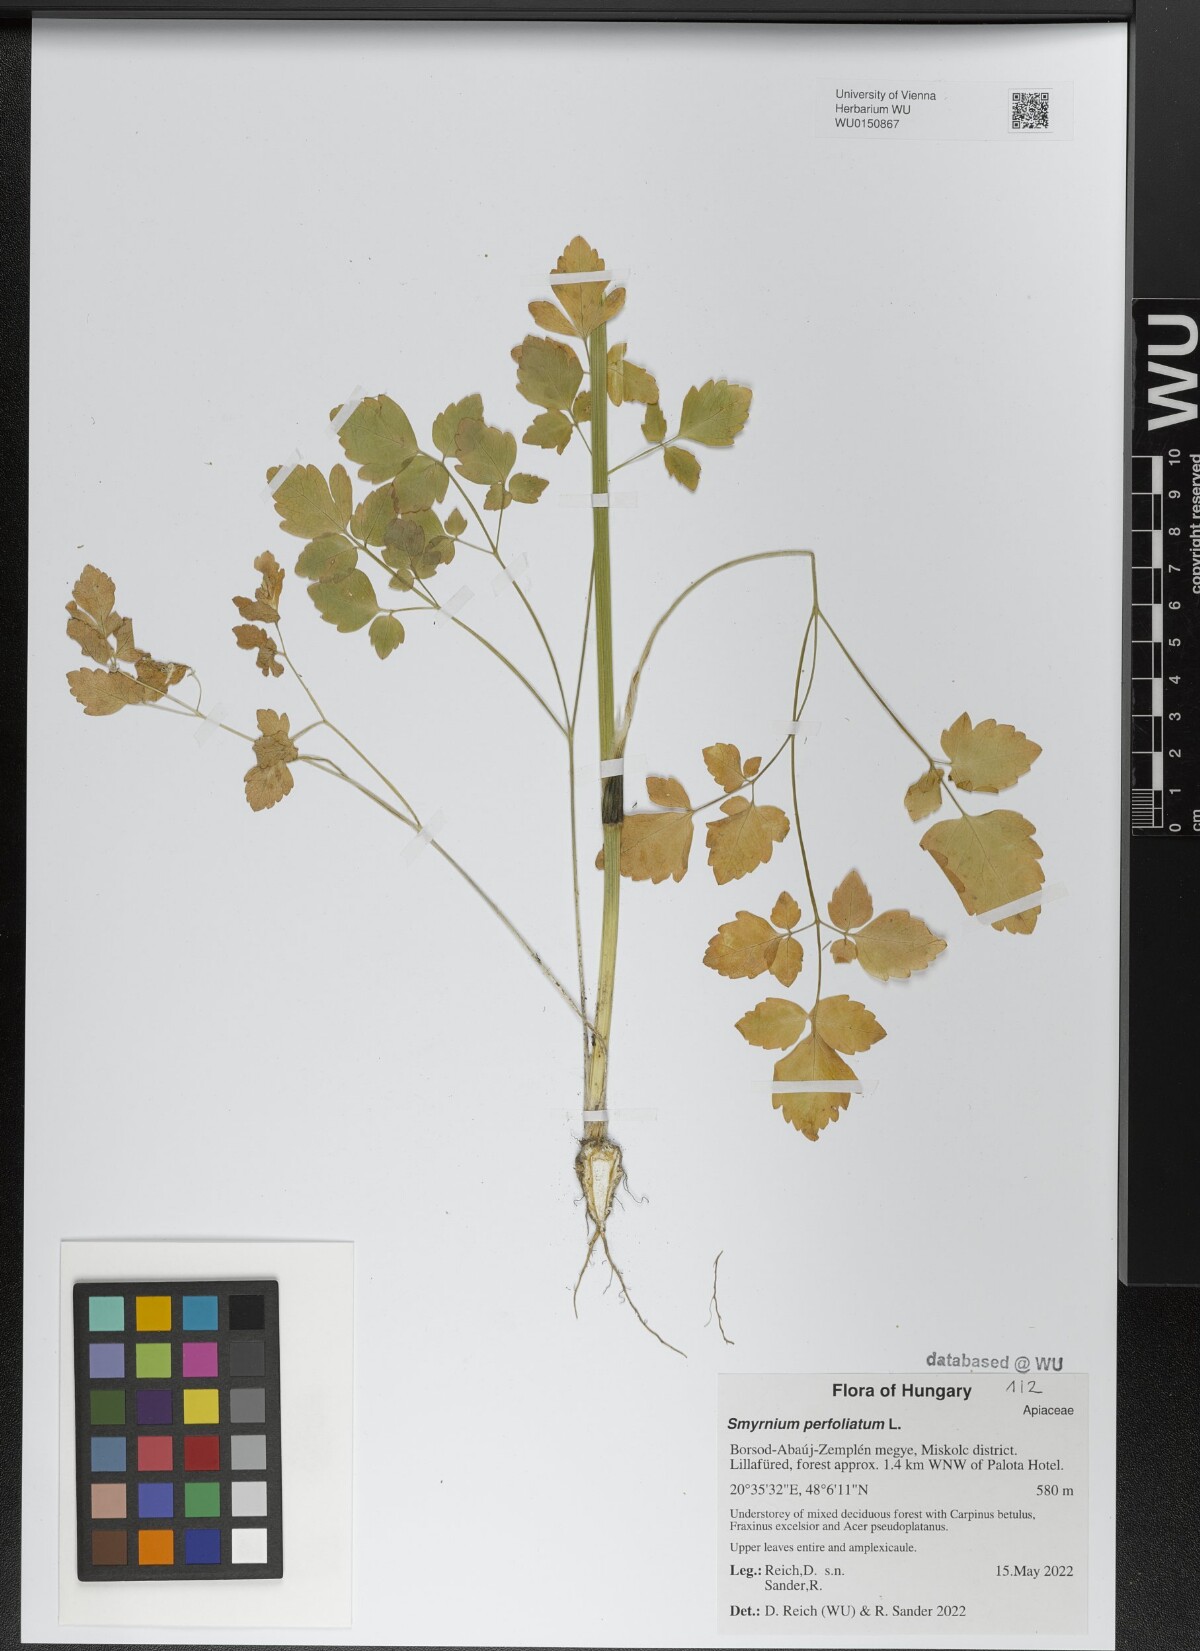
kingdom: Plantae
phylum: Tracheophyta
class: Magnoliopsida
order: Apiales
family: Apiaceae
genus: Smyrnium
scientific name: Smyrnium perfoliatum
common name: Perfoliate alexanders
